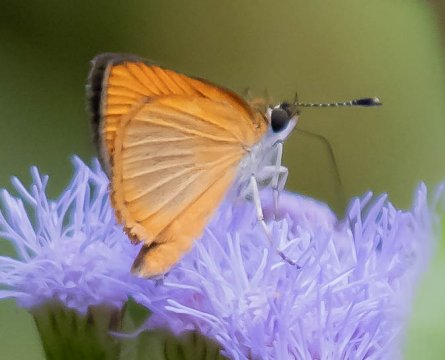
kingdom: Animalia
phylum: Arthropoda
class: Insecta
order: Lepidoptera
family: Hesperiidae
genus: Ancyloxypha
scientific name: Ancyloxypha numitor
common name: Least Skipper
